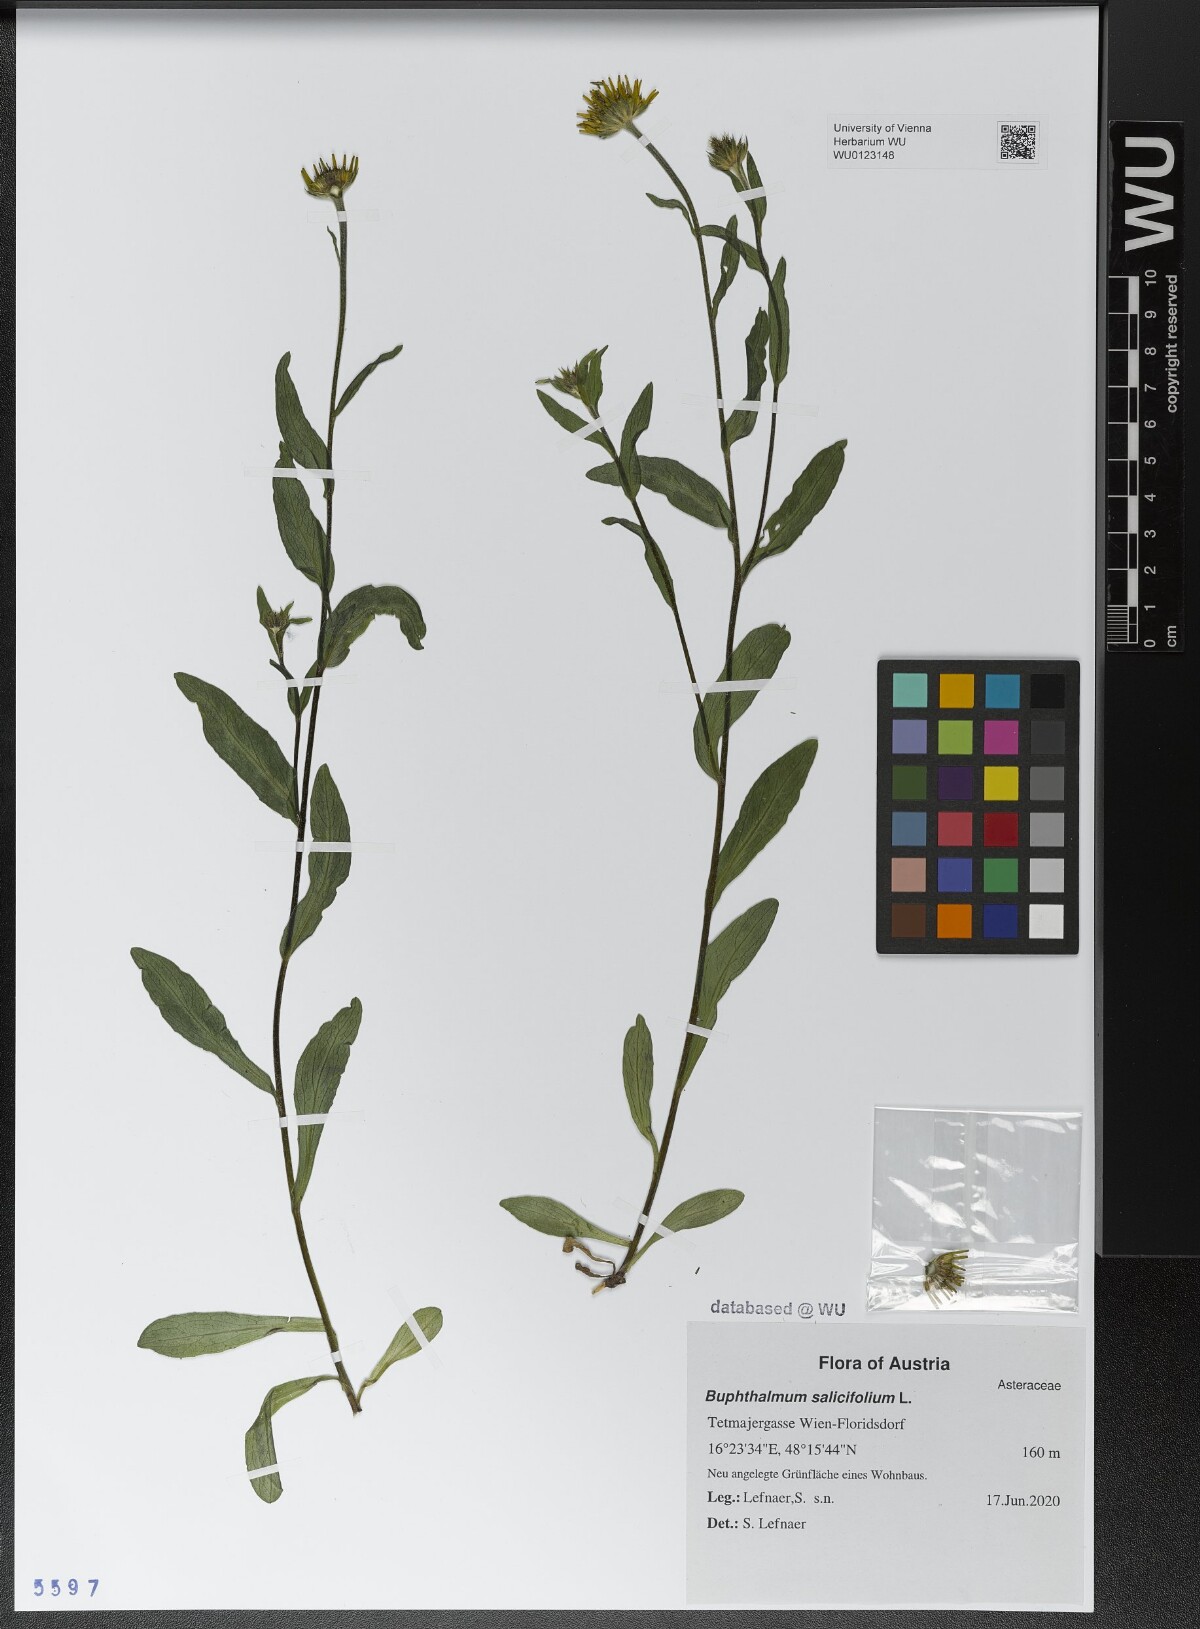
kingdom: Plantae
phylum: Tracheophyta
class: Magnoliopsida
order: Asterales
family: Asteraceae
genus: Buphthalmum
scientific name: Buphthalmum salicifolium
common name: Willow-leaved yellow-oxeye
